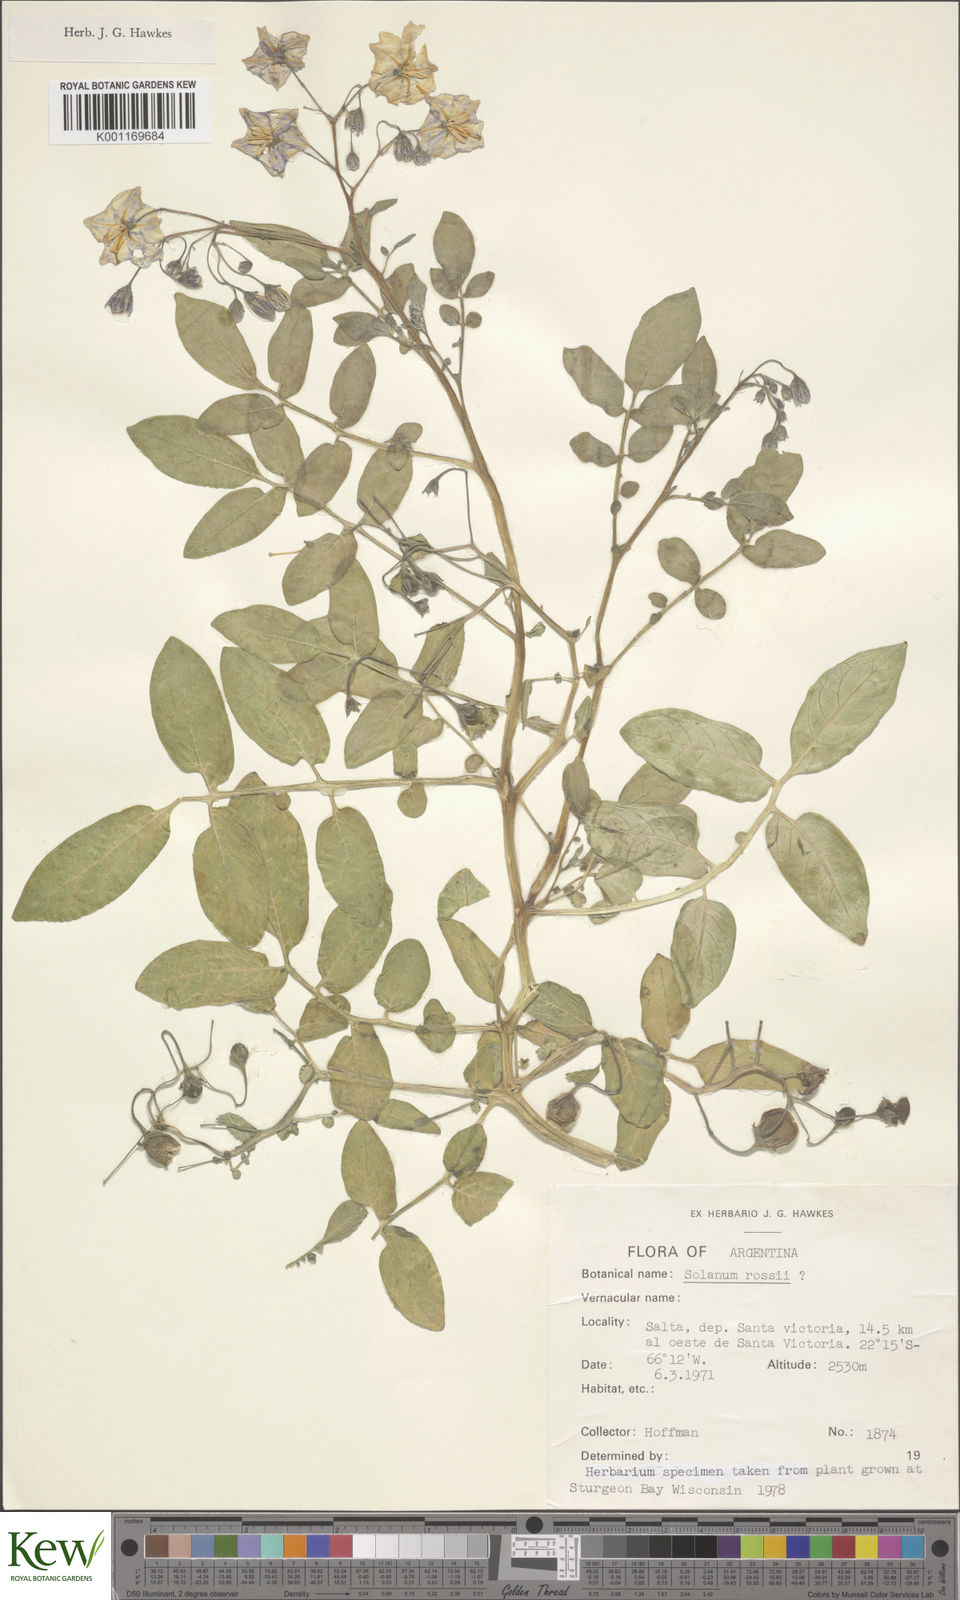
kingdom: Plantae
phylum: Tracheophyta
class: Magnoliopsida
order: Solanales
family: Solanaceae
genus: Solanum
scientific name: Solanum neorossii
